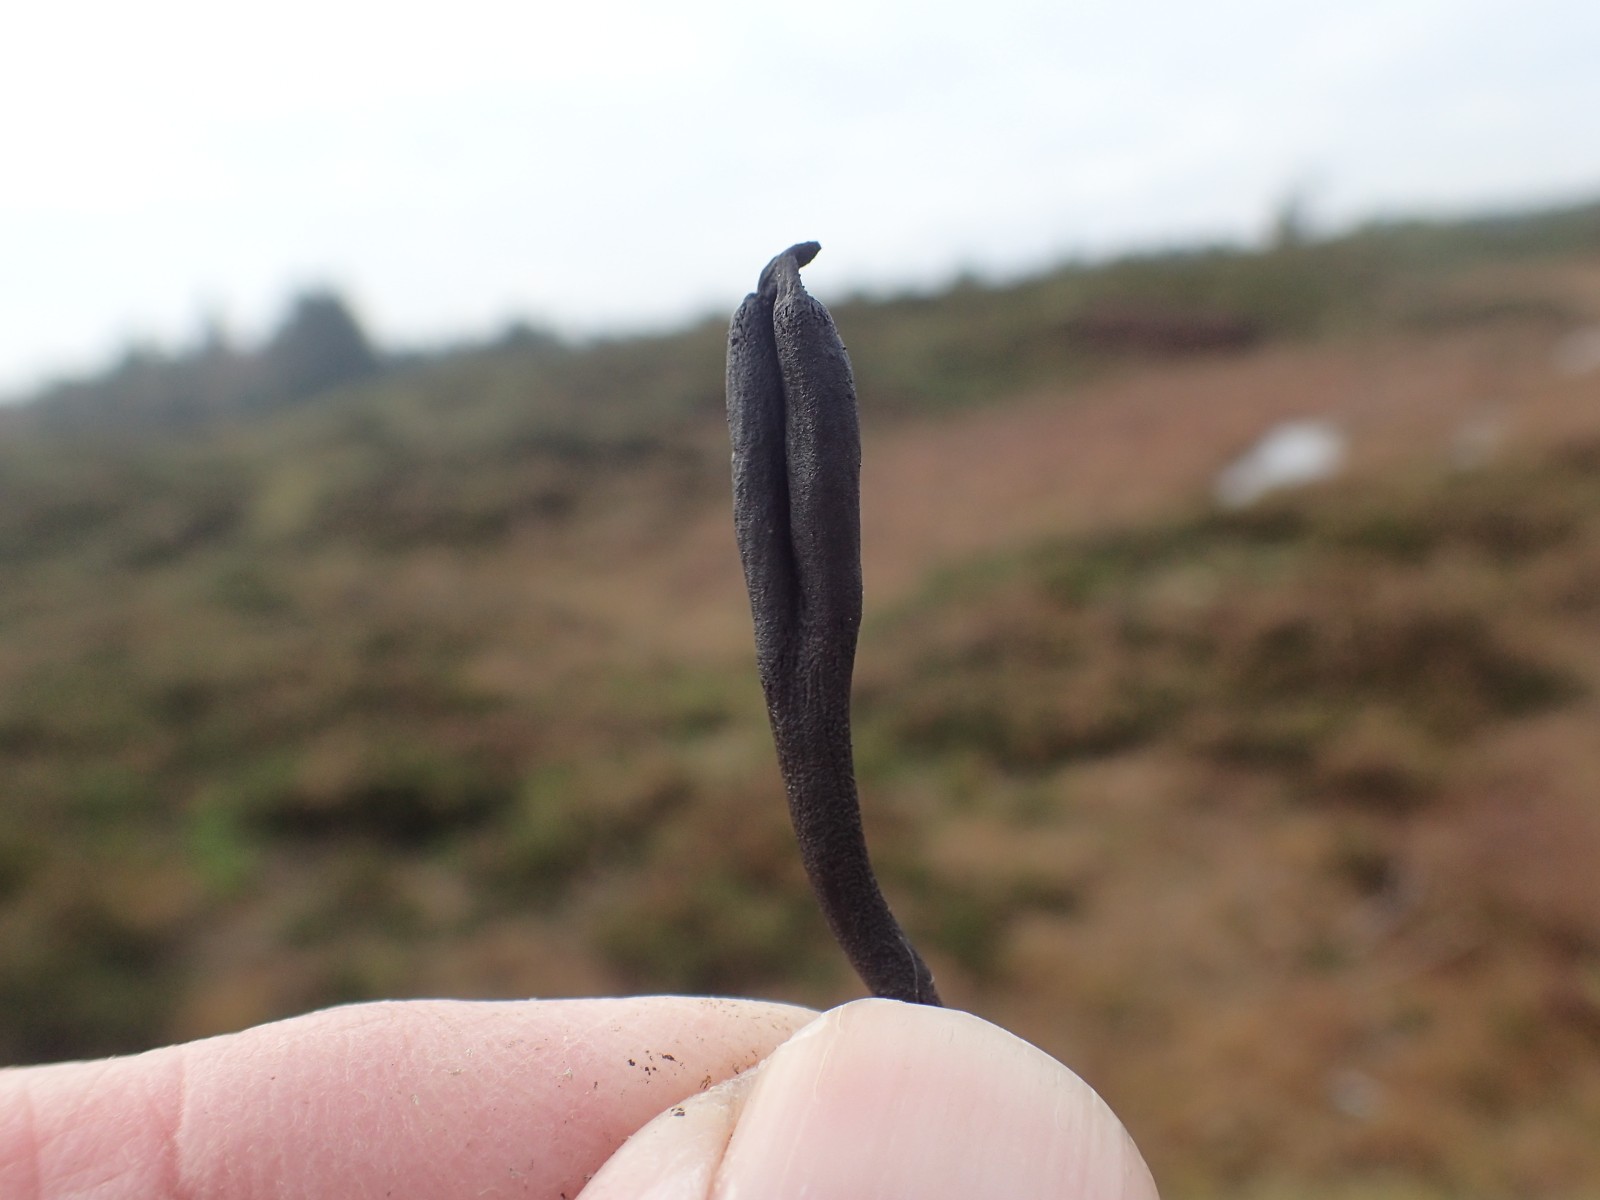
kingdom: Fungi
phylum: Ascomycota
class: Geoglossomycetes
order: Geoglossales
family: Geoglossaceae
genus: Geoglossum
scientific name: Geoglossum
